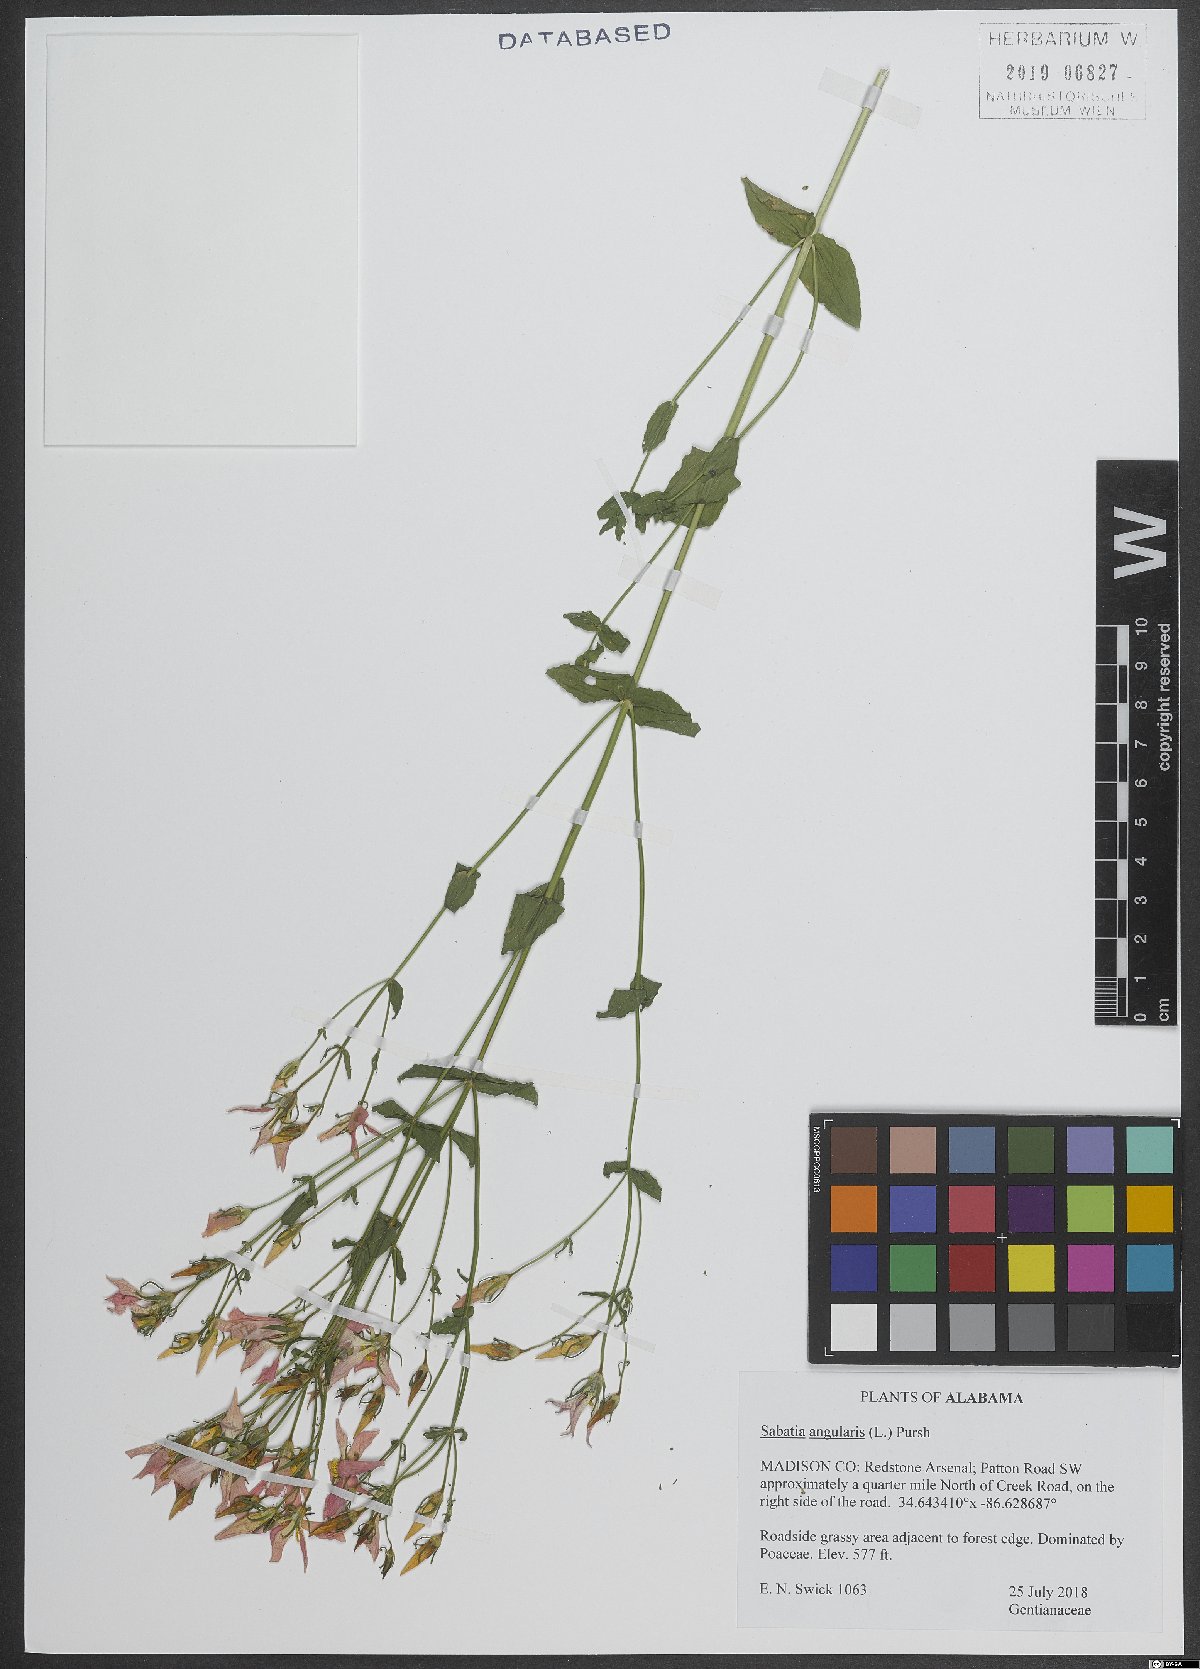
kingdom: Plantae
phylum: Tracheophyta
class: Magnoliopsida
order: Gentianales
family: Gentianaceae
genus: Sabatia
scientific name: Sabatia angularis
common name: Rose-pink
